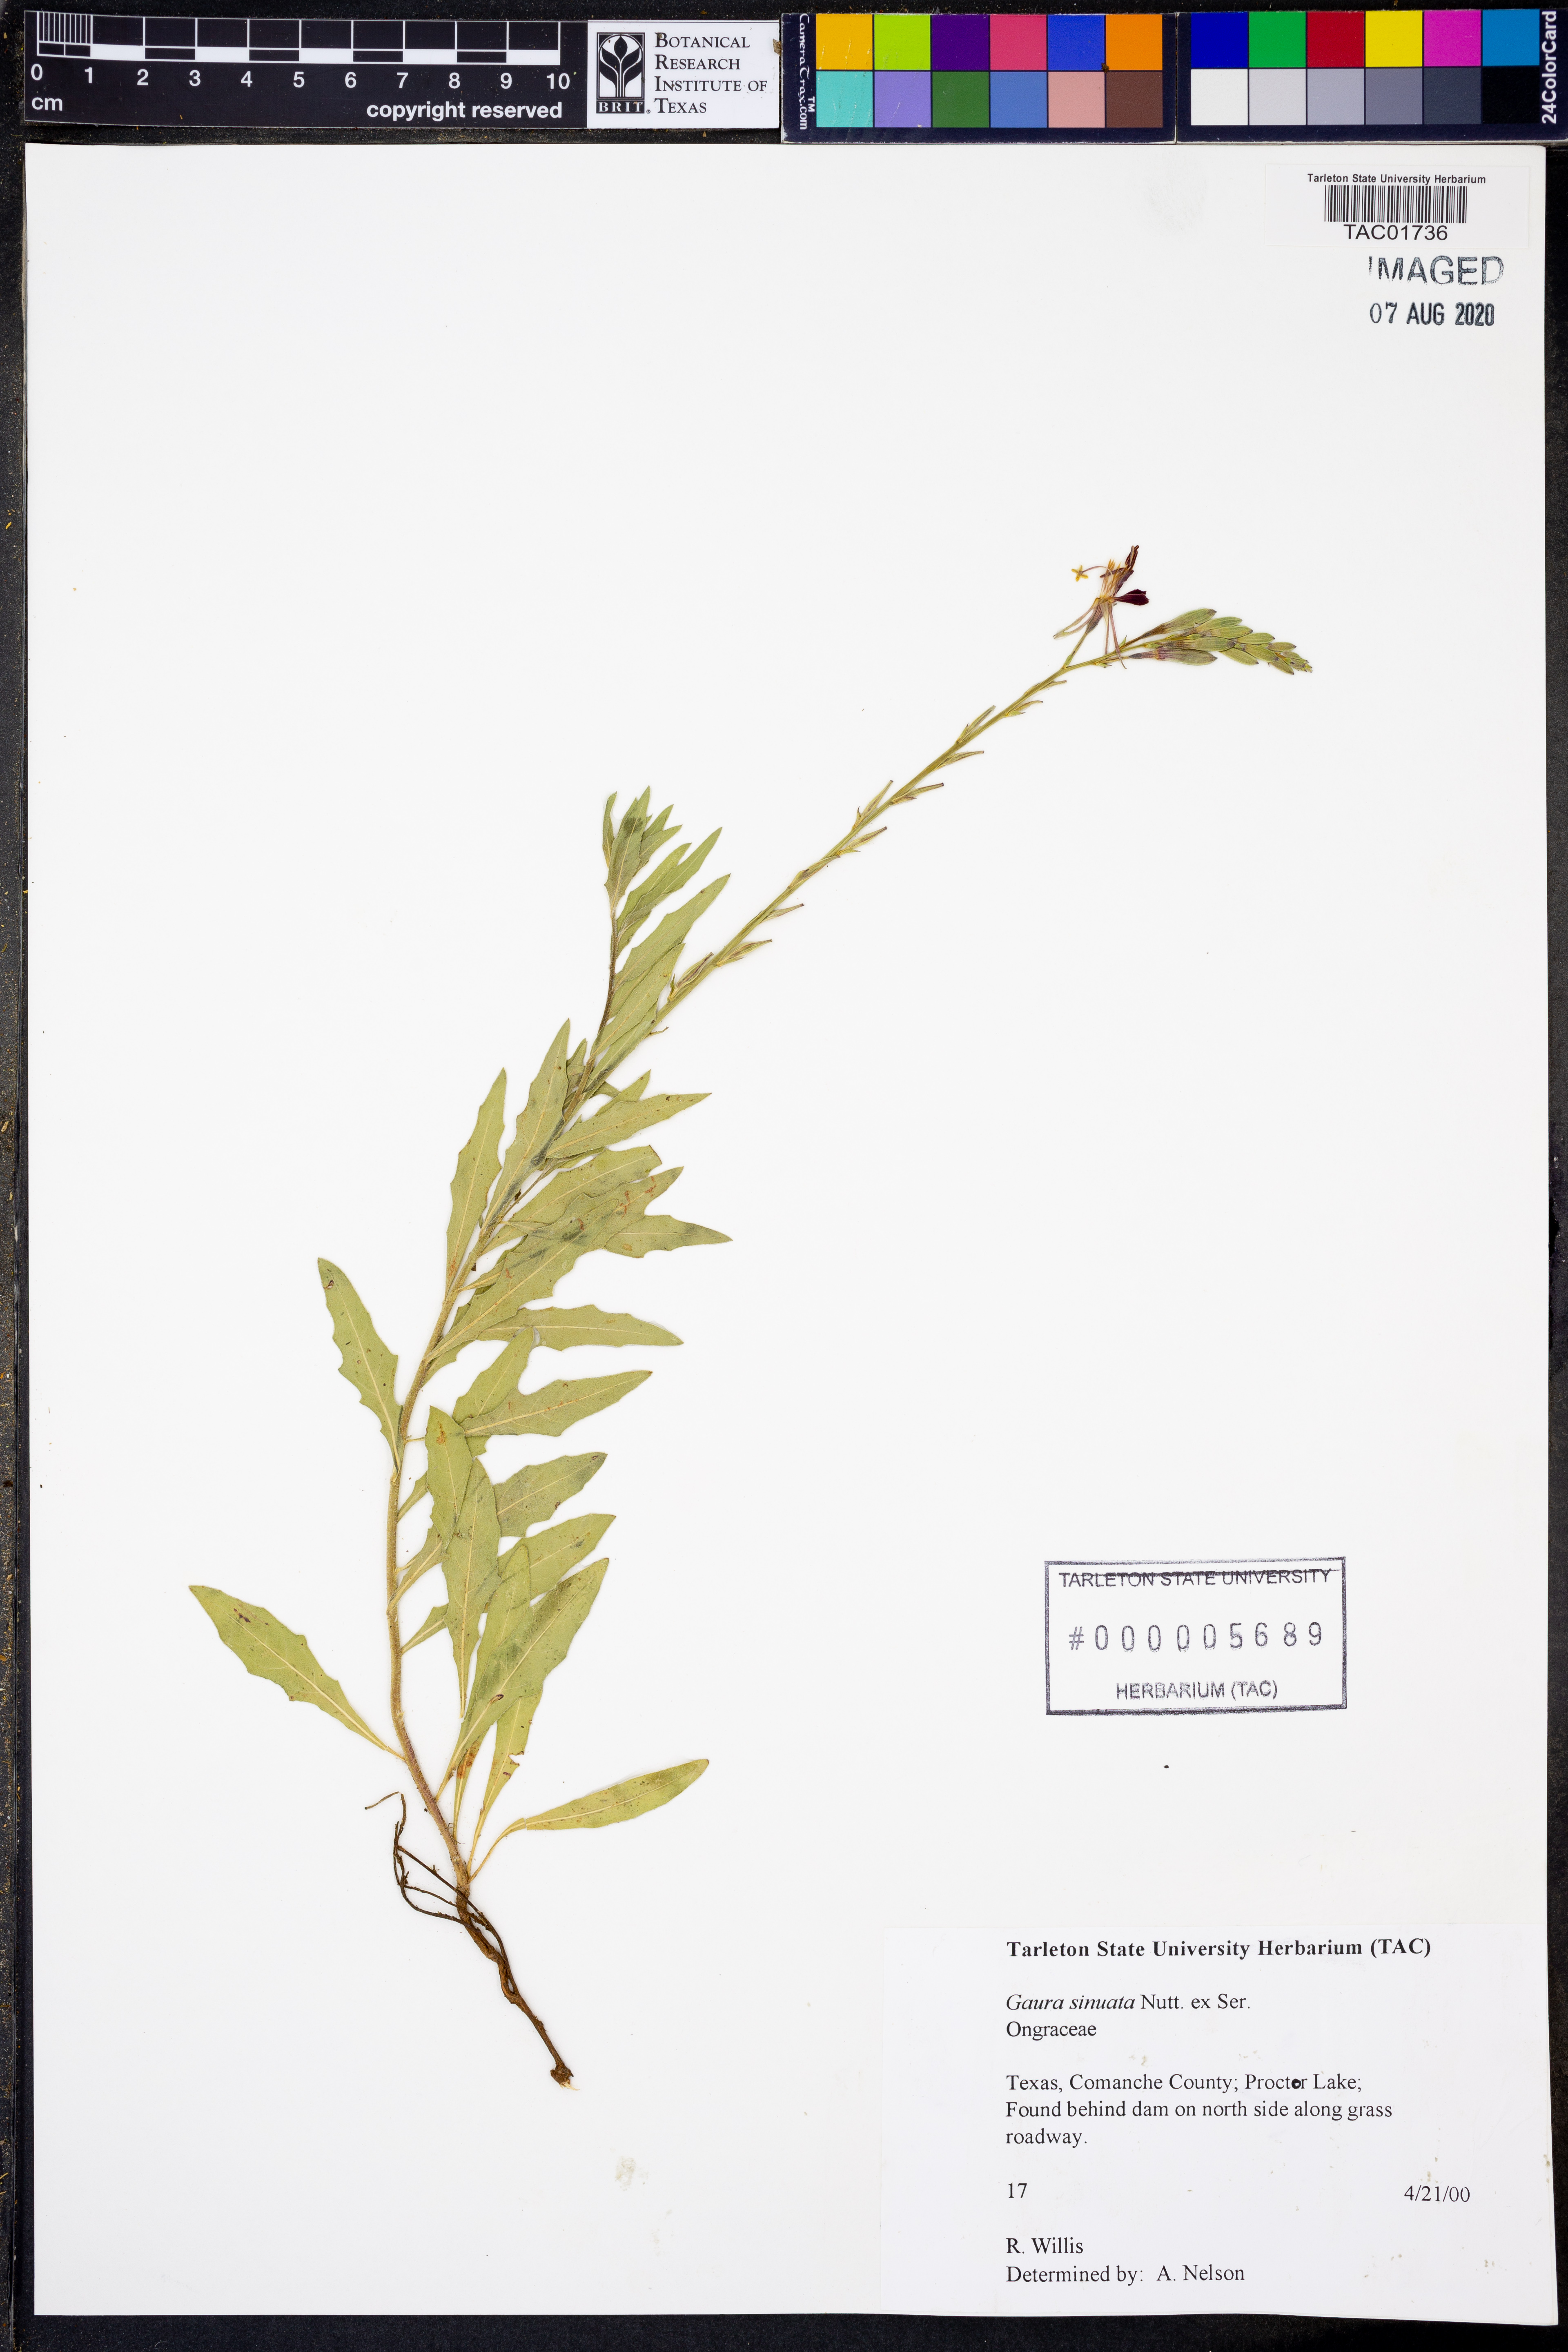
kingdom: Plantae
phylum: Tracheophyta
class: Magnoliopsida
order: Myrtales
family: Onagraceae
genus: Oenothera
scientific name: Oenothera sinuosa
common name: Wavyleaf beeblossom
